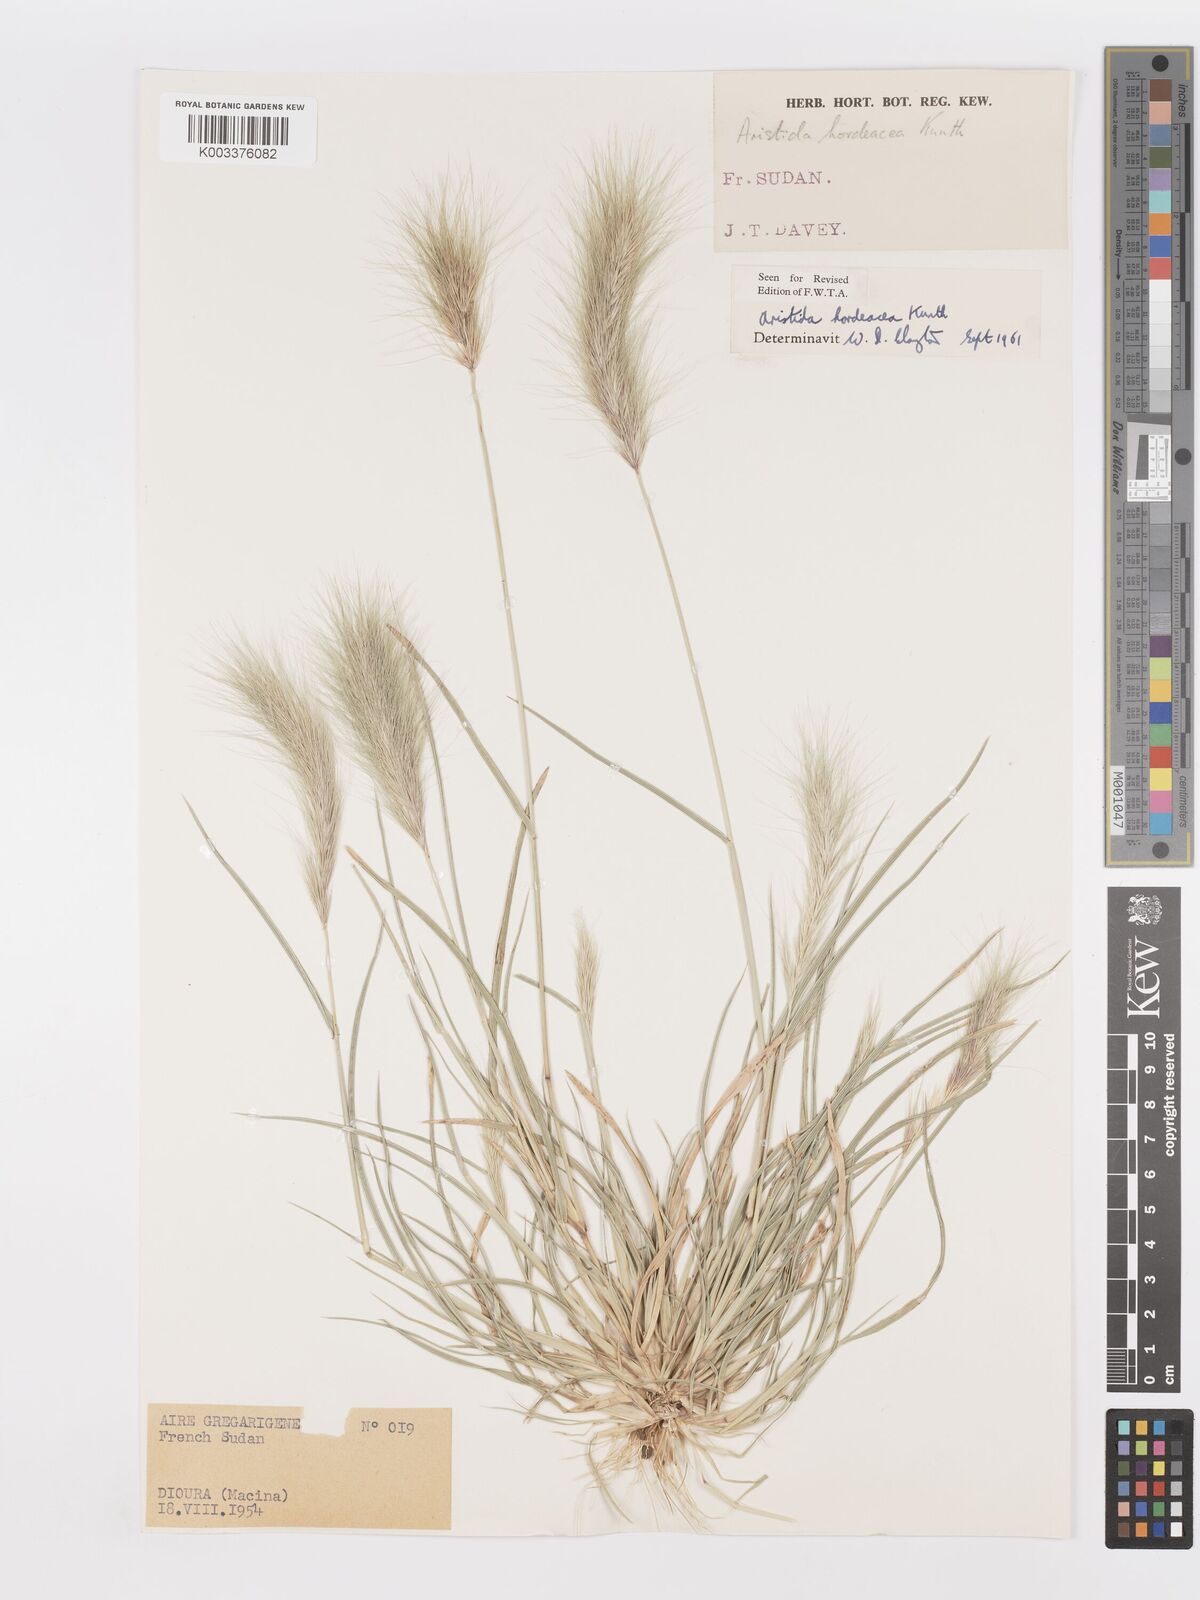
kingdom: Plantae
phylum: Tracheophyta
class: Liliopsida
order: Poales
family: Poaceae
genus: Aristida
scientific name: Aristida hordeacea
